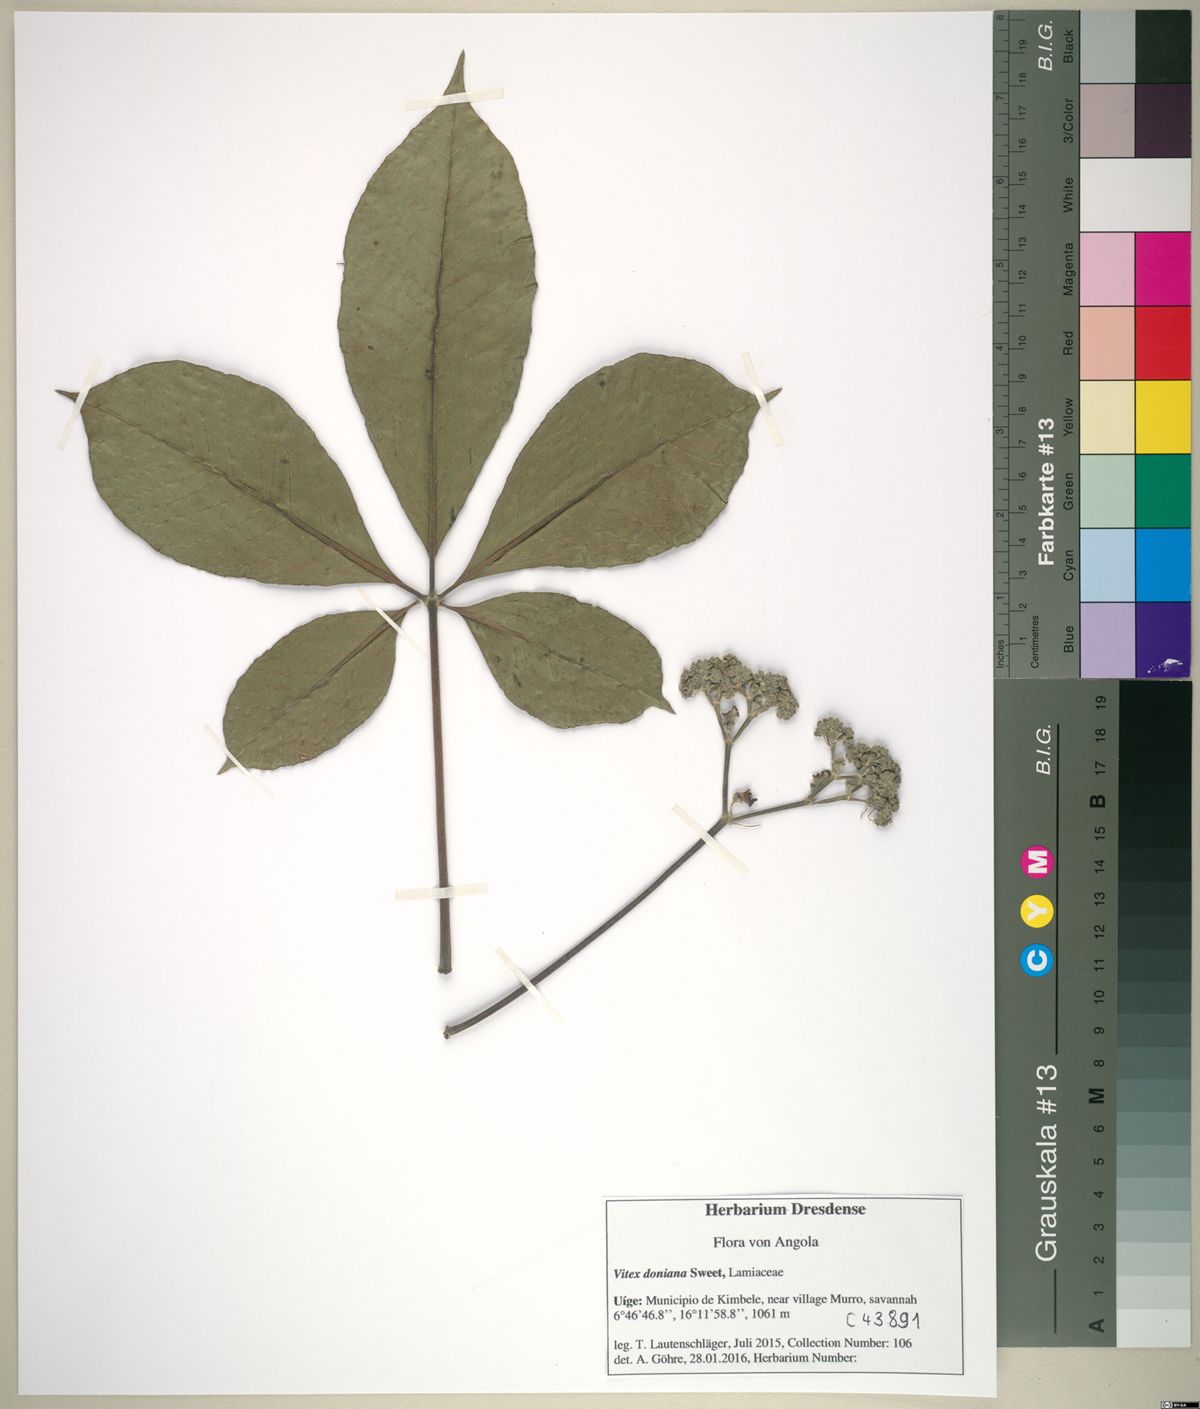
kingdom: Plantae
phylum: Tracheophyta
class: Magnoliopsida
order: Lamiales
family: Lamiaceae
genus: Vitex
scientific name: Vitex doniana
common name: Black plum
